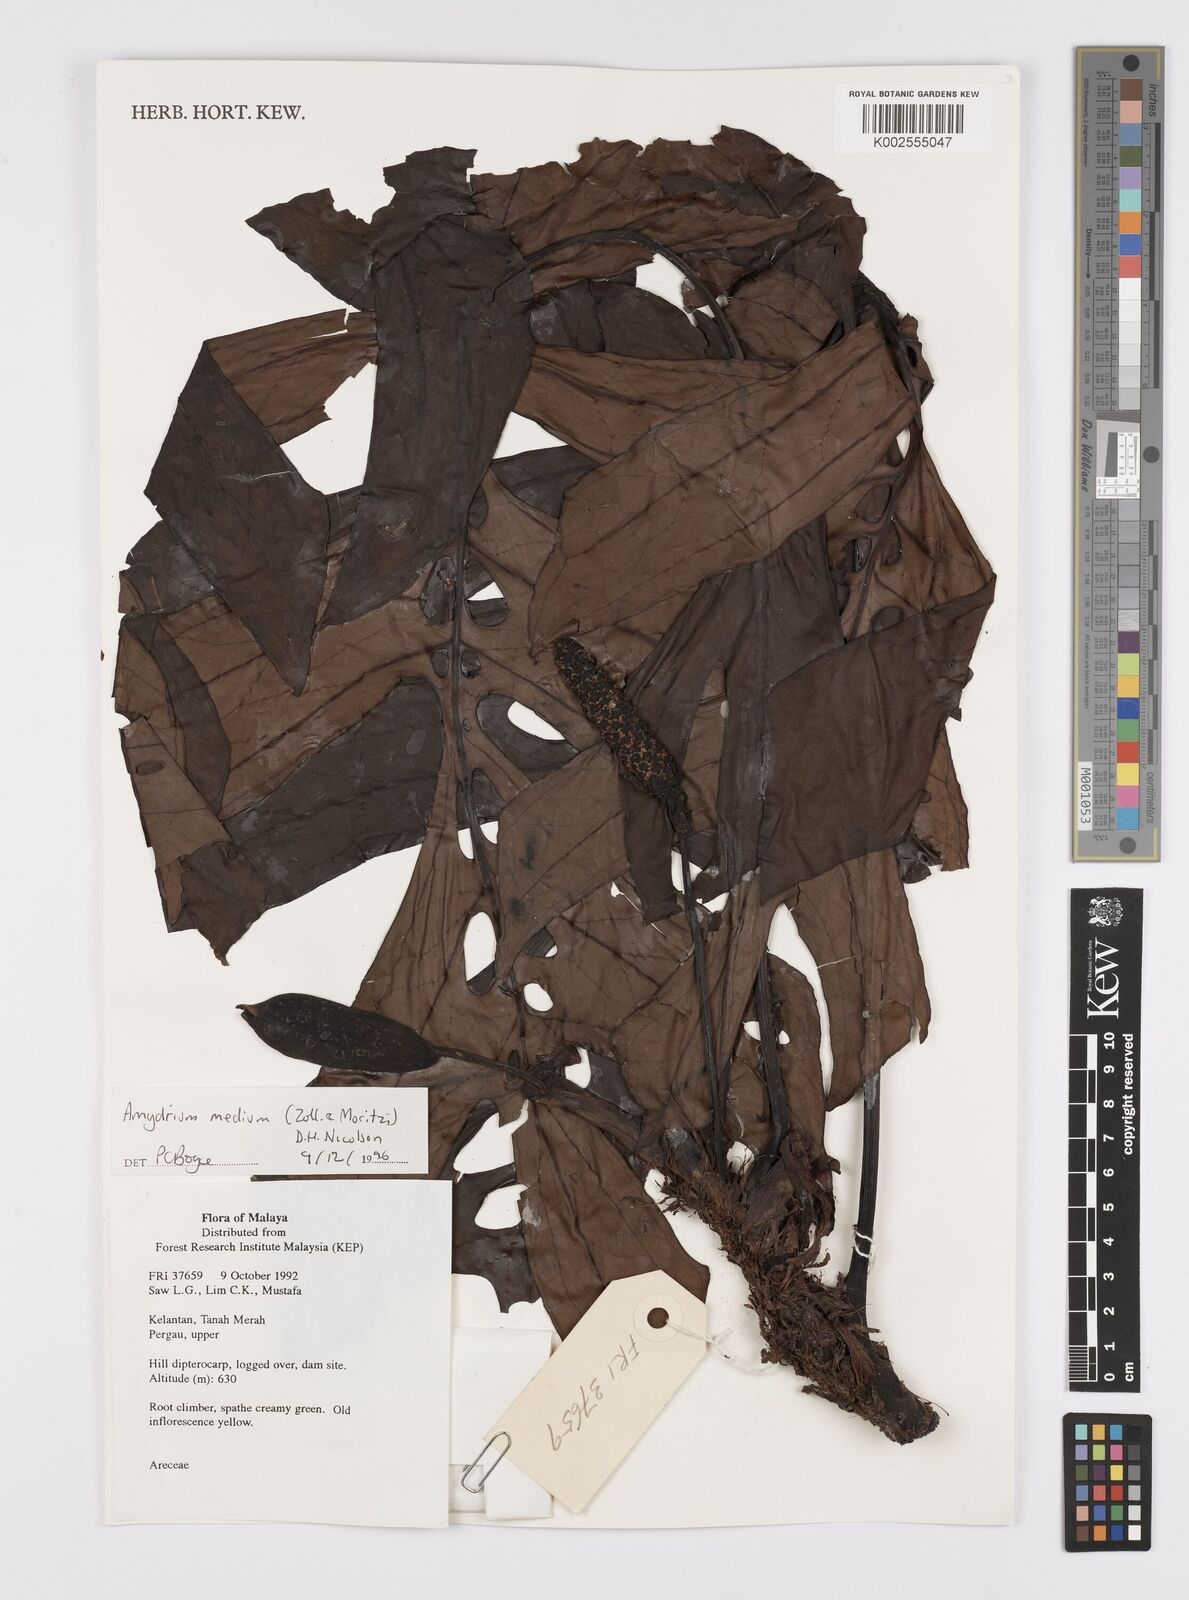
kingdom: Plantae
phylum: Tracheophyta
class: Liliopsida
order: Alismatales
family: Araceae
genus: Amydrium
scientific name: Amydrium medium
